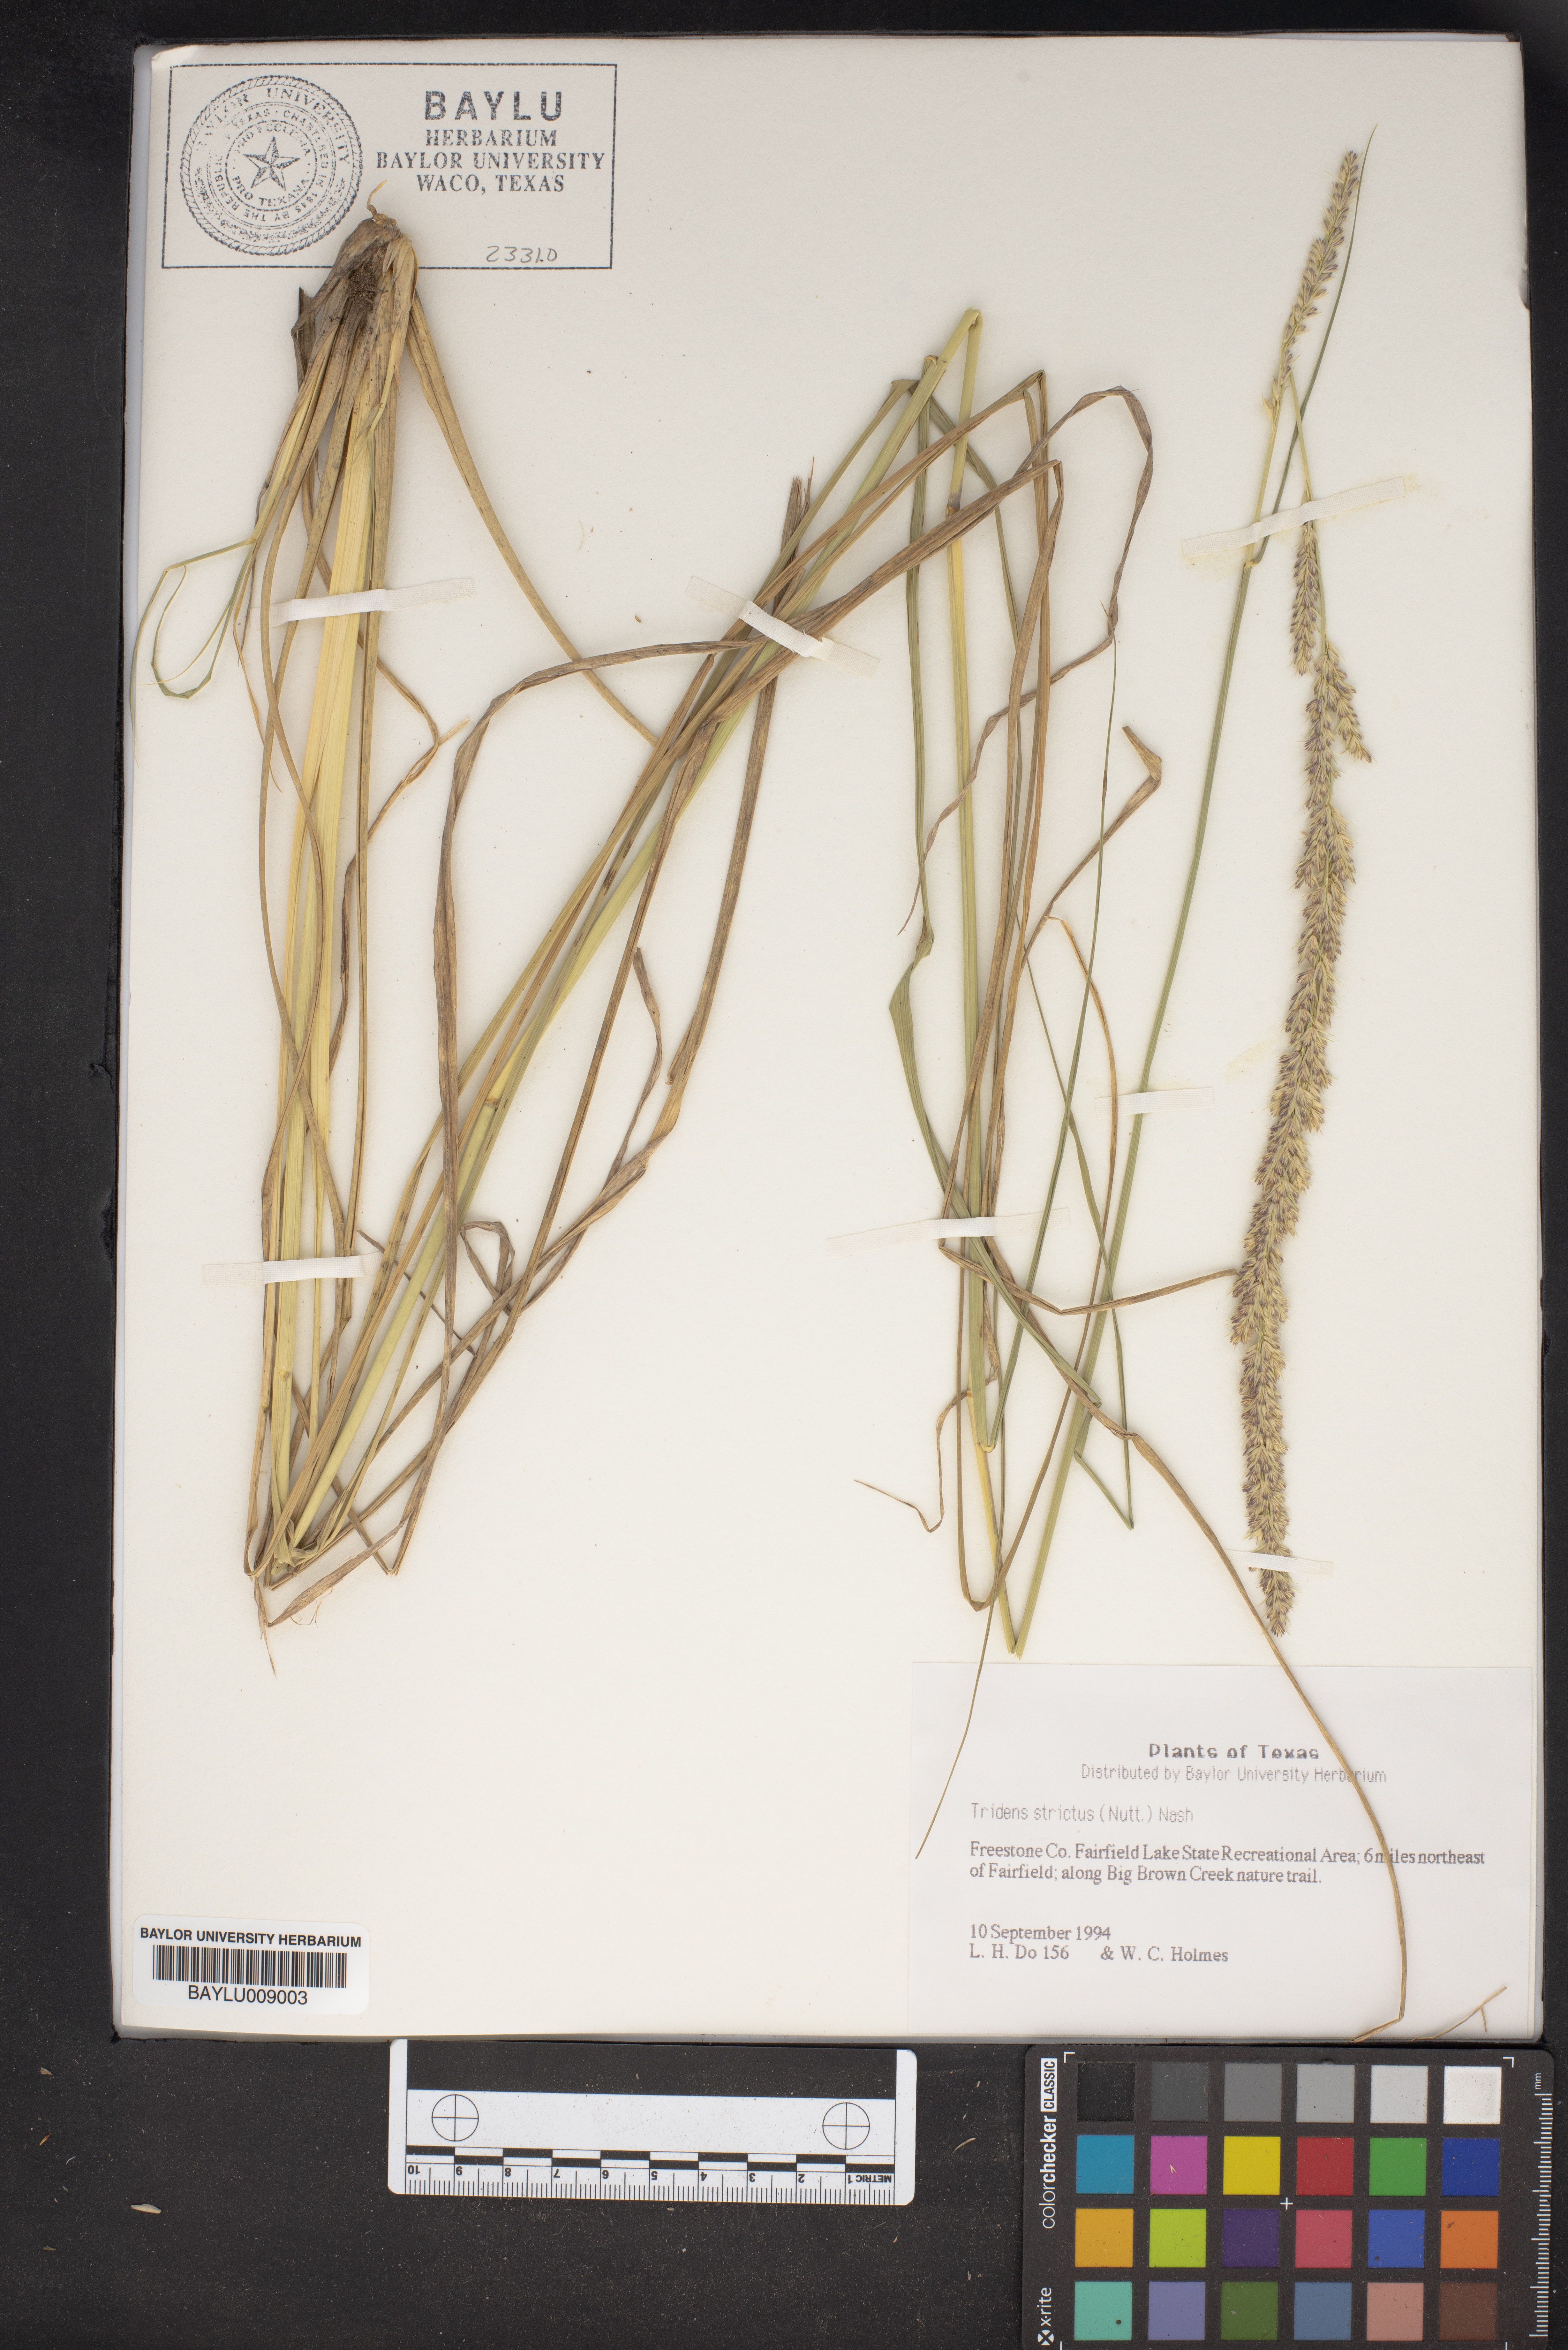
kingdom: Plantae
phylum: Tracheophyta
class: Liliopsida
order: Poales
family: Poaceae
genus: Tridens
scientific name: Tridens strictus
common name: Long-spike tridens
